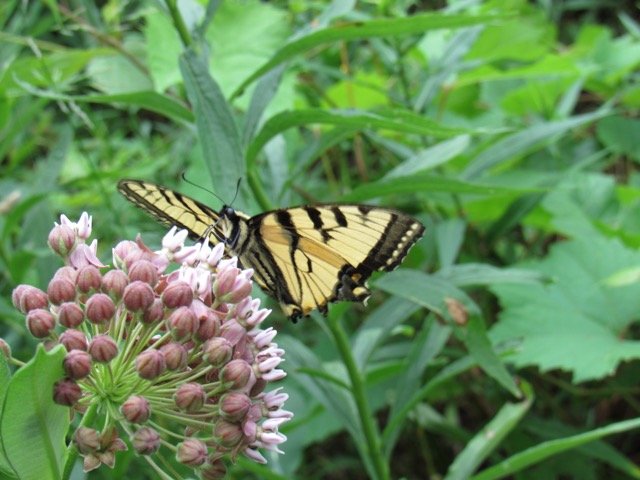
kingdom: Animalia
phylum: Arthropoda
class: Insecta
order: Lepidoptera
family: Papilionidae
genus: Pterourus
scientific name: Pterourus glaucus
